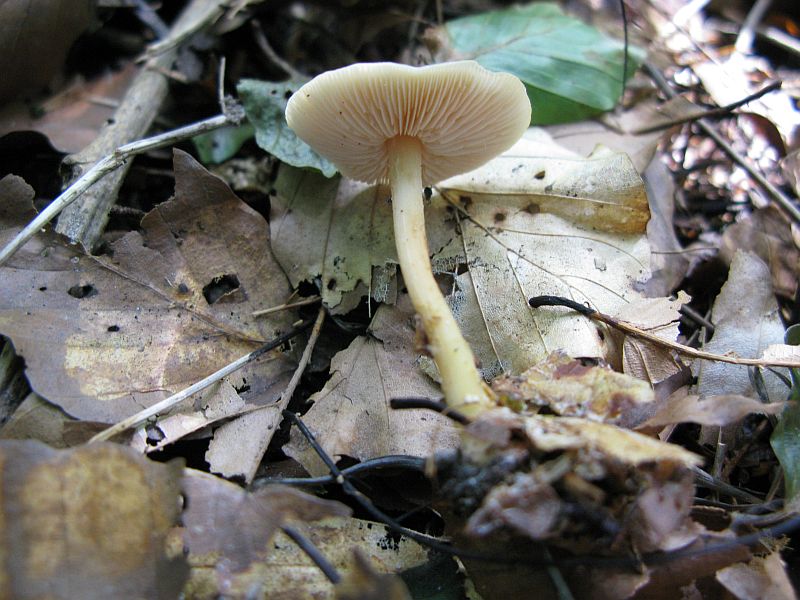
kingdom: Fungi
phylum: Basidiomycota
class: Agaricomycetes
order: Agaricales
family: Omphalotaceae
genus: Gymnopus
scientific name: Gymnopus dryophilus
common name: løv-fladhat
